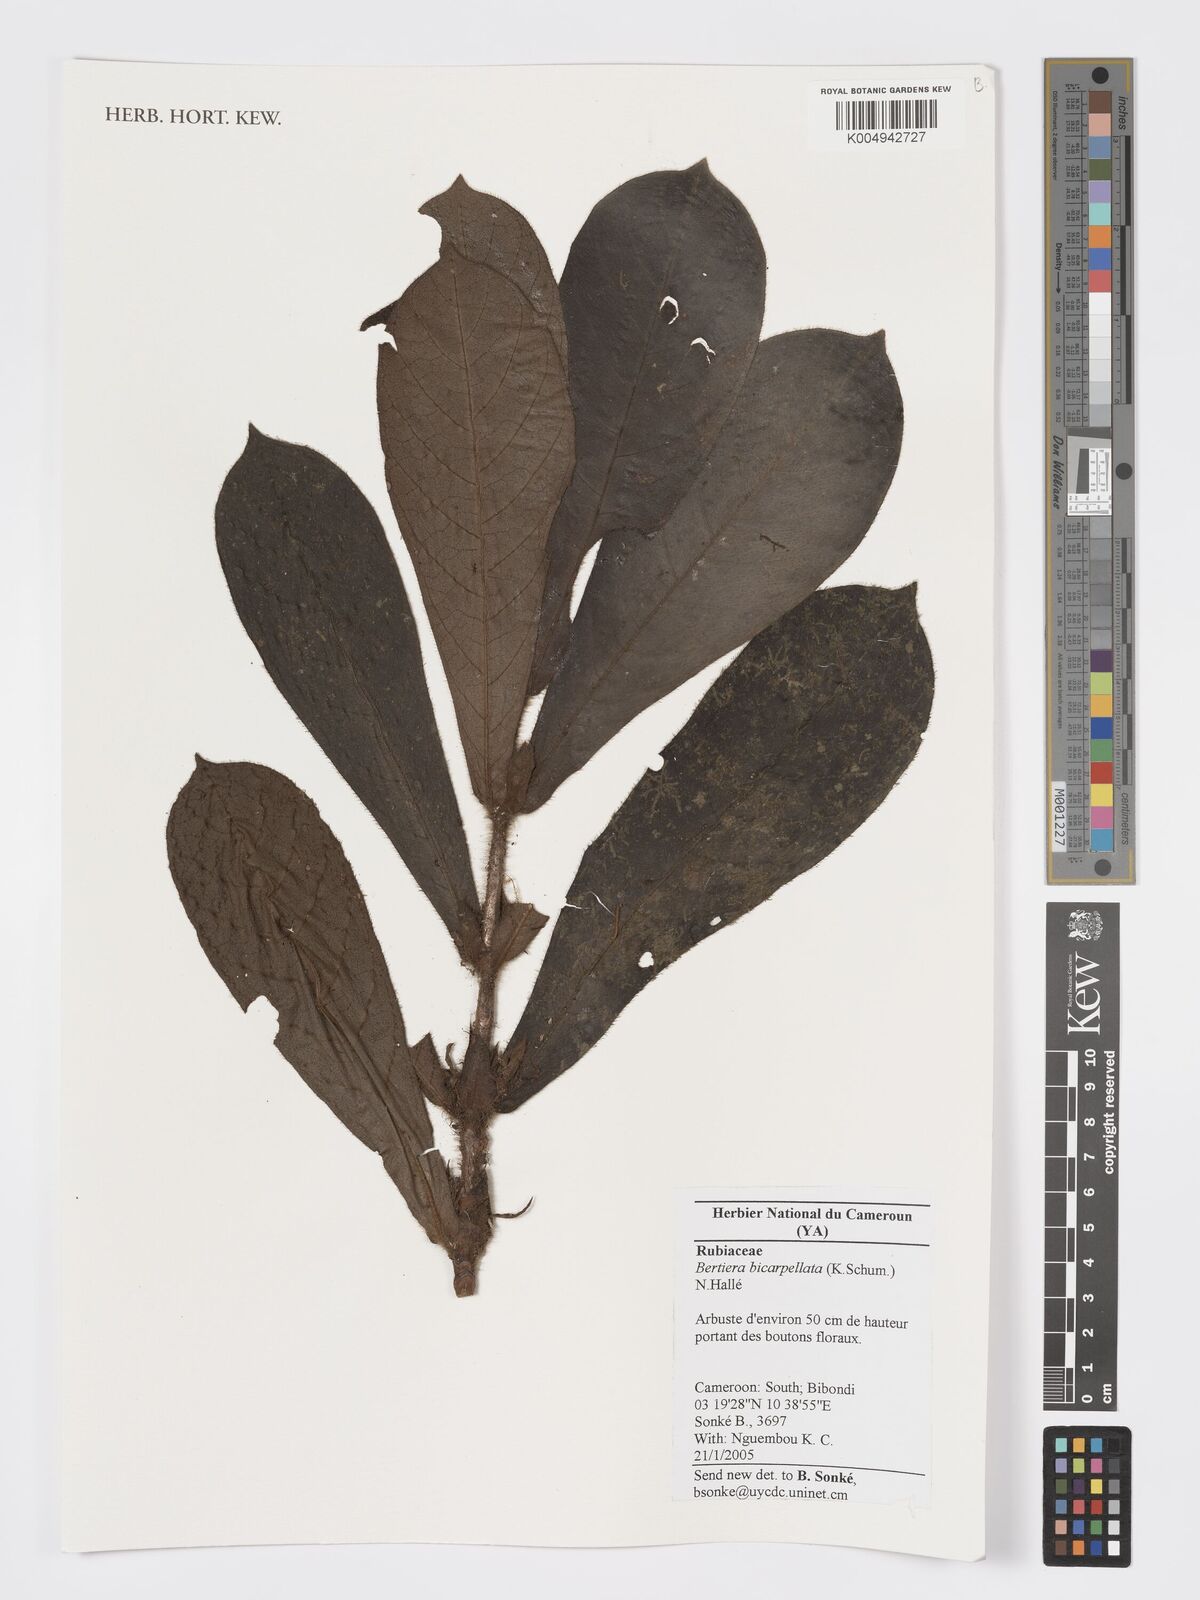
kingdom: Plantae
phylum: Tracheophyta
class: Magnoliopsida
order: Gentianales
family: Rubiaceae
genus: Bertiera
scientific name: Bertiera bicarpellata
